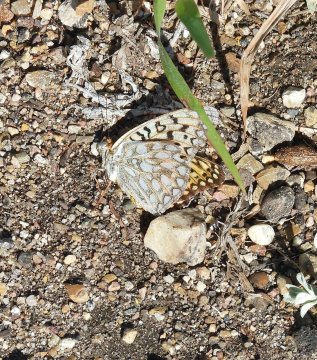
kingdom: Animalia
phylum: Arthropoda
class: Insecta
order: Lepidoptera
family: Nymphalidae
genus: Speyeria
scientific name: Speyeria edwardsii
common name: Edwards' Fritillary
